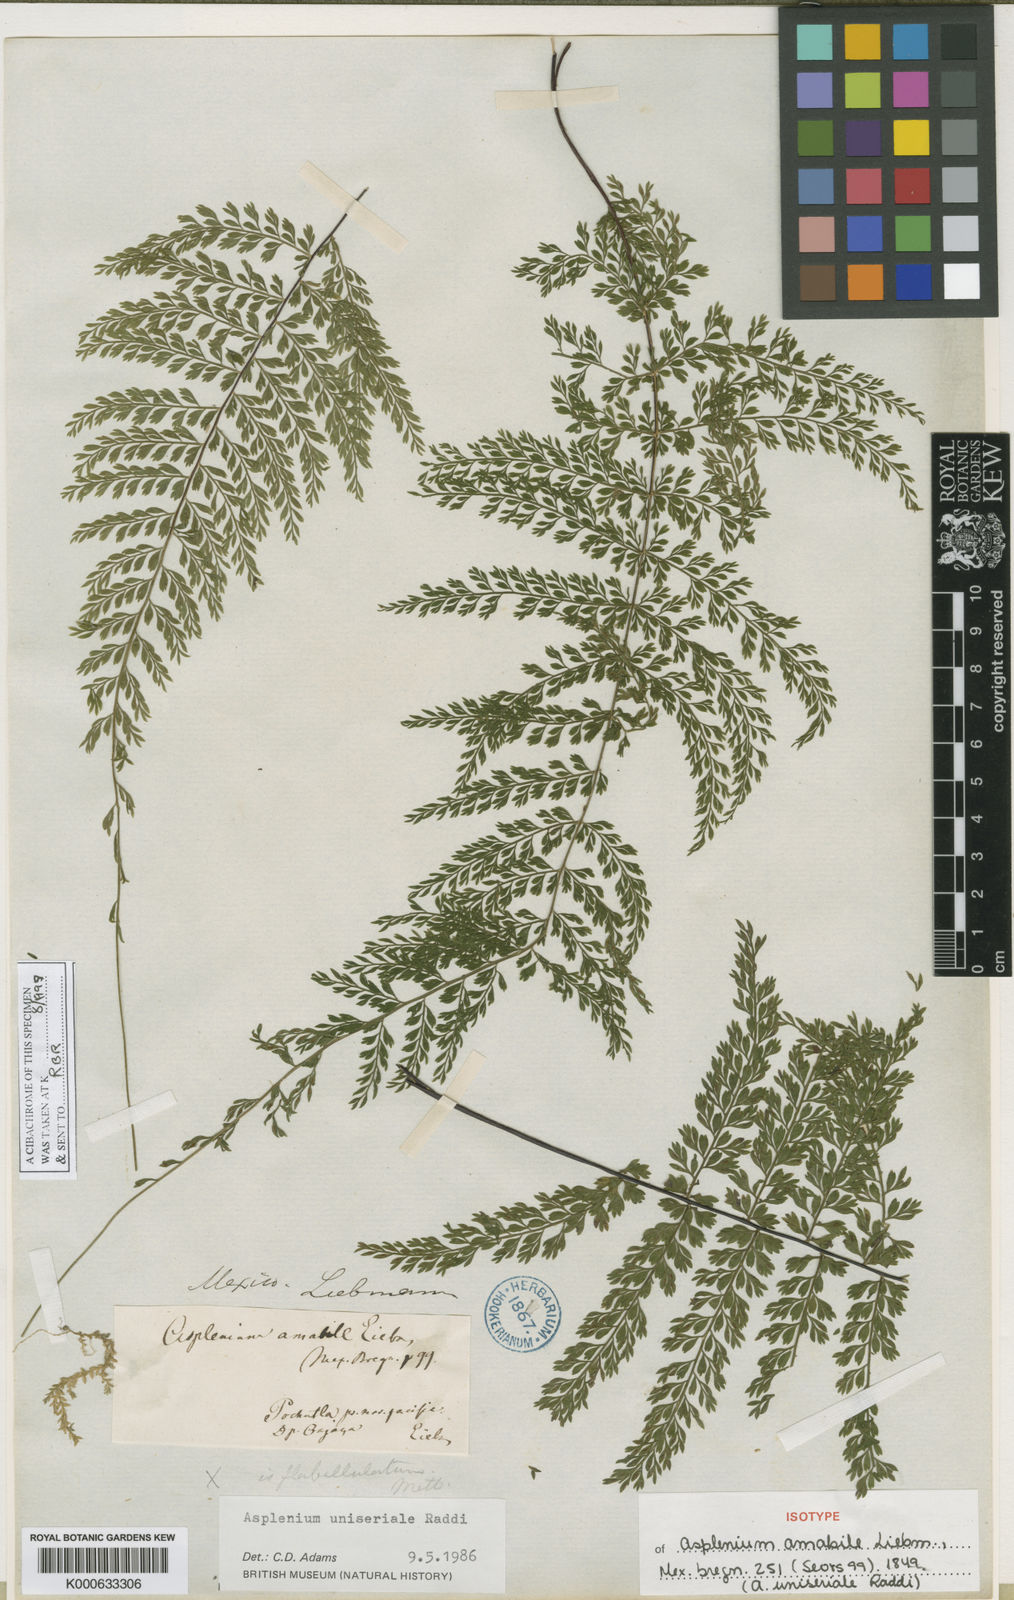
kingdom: Plantae
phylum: Tracheophyta
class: Polypodiopsida
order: Polypodiales
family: Aspleniaceae
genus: Asplenium
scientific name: Asplenium uniseriale
